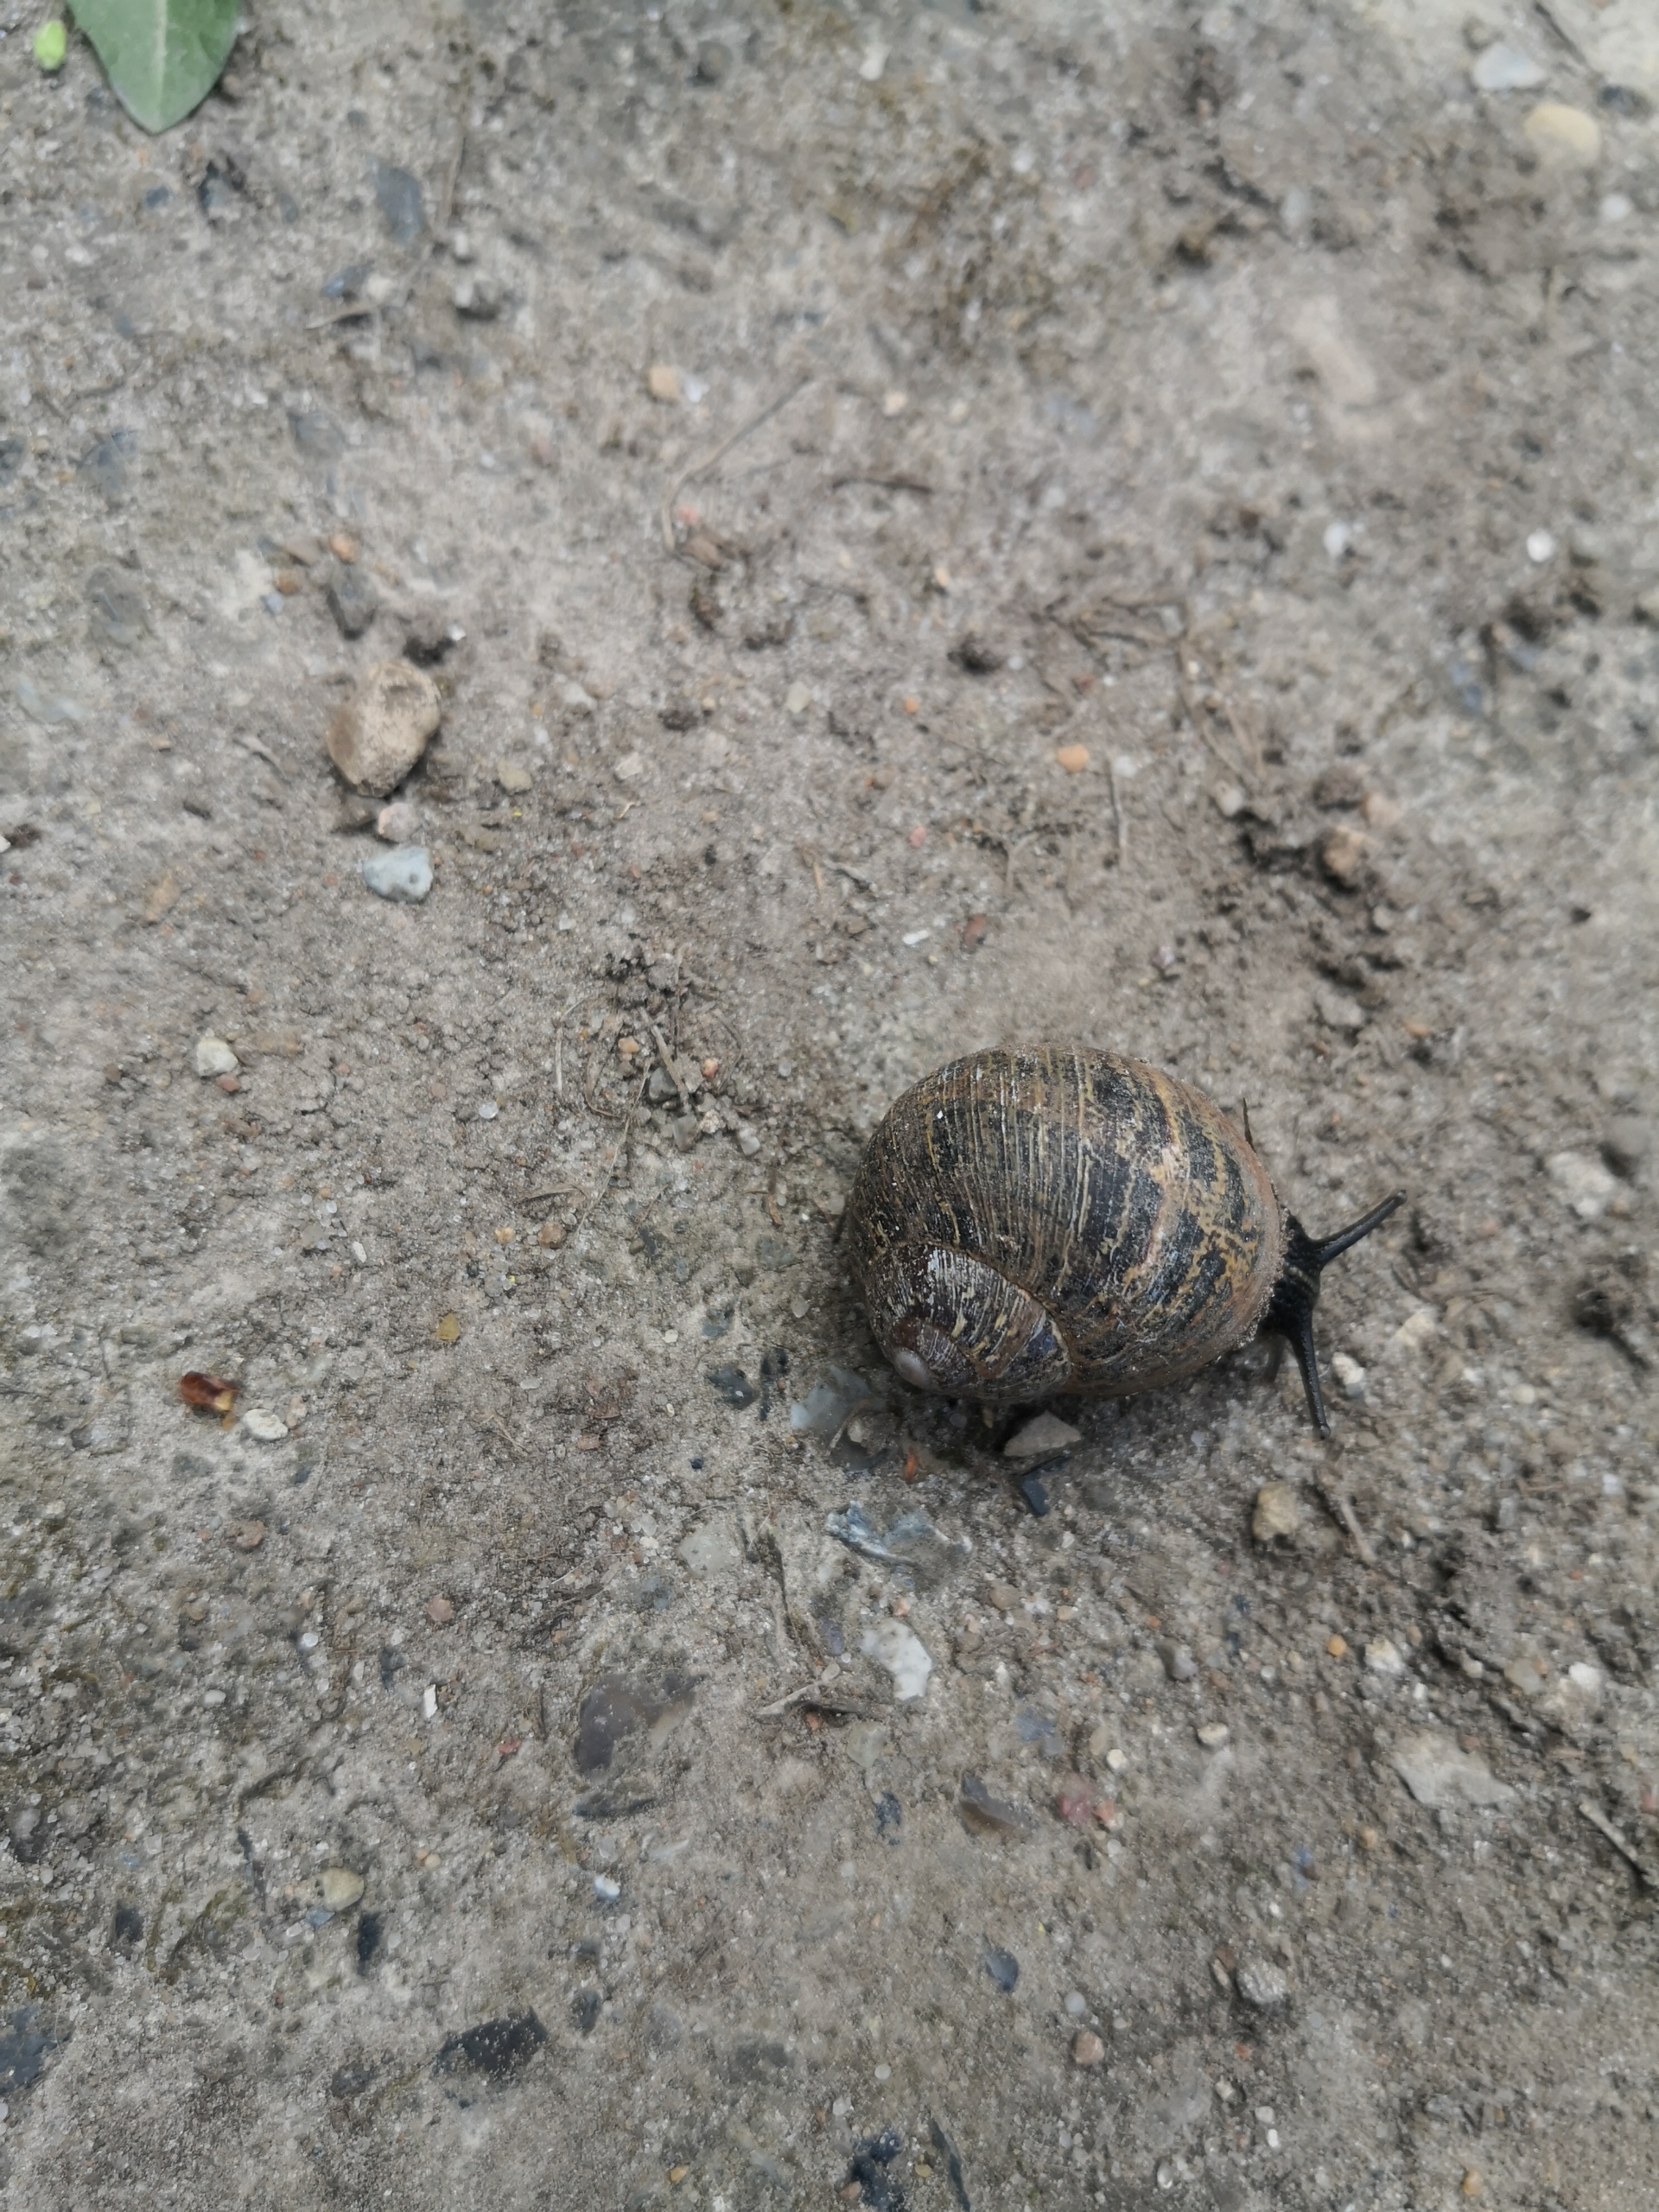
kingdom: Animalia
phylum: Mollusca
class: Gastropoda
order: Stylommatophora
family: Helicidae
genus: Cornu
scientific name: Cornu aspersum
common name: Plettet voldsnegl
